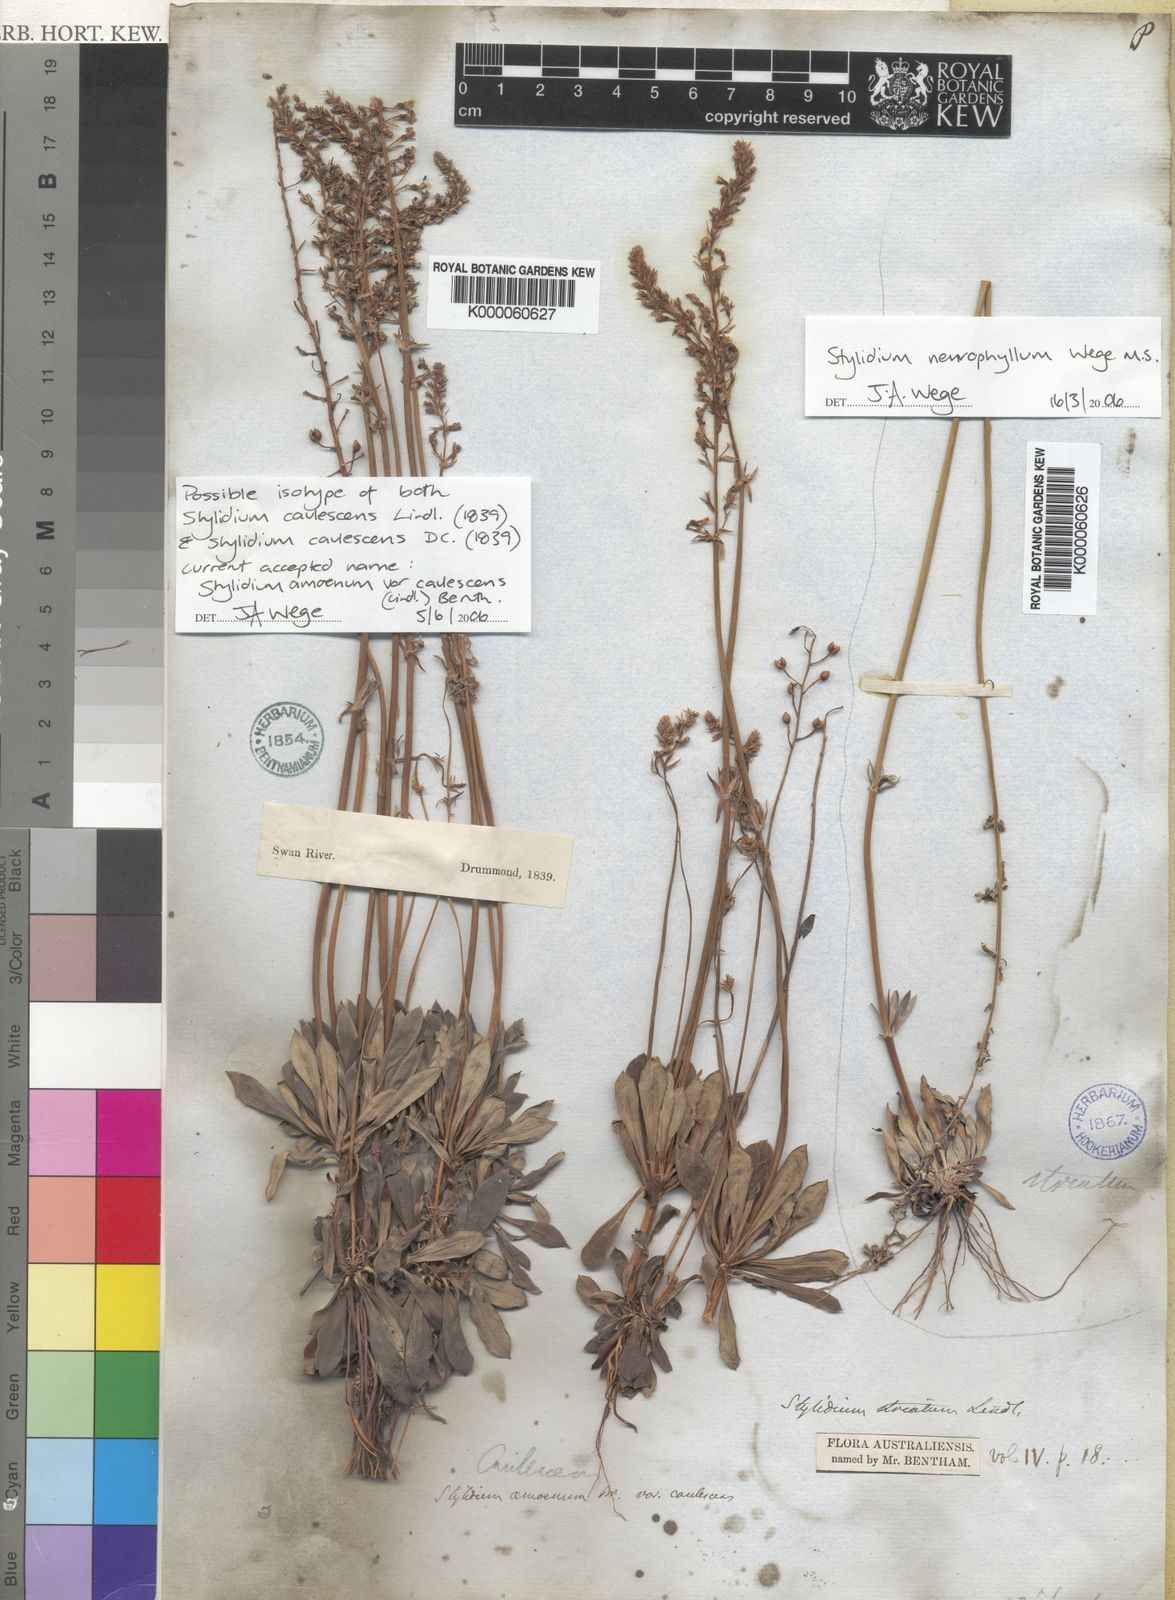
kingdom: Plantae
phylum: Tracheophyta
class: Magnoliopsida
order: Asterales
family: Stylidiaceae
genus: Stylidium
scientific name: Stylidium amoenum
